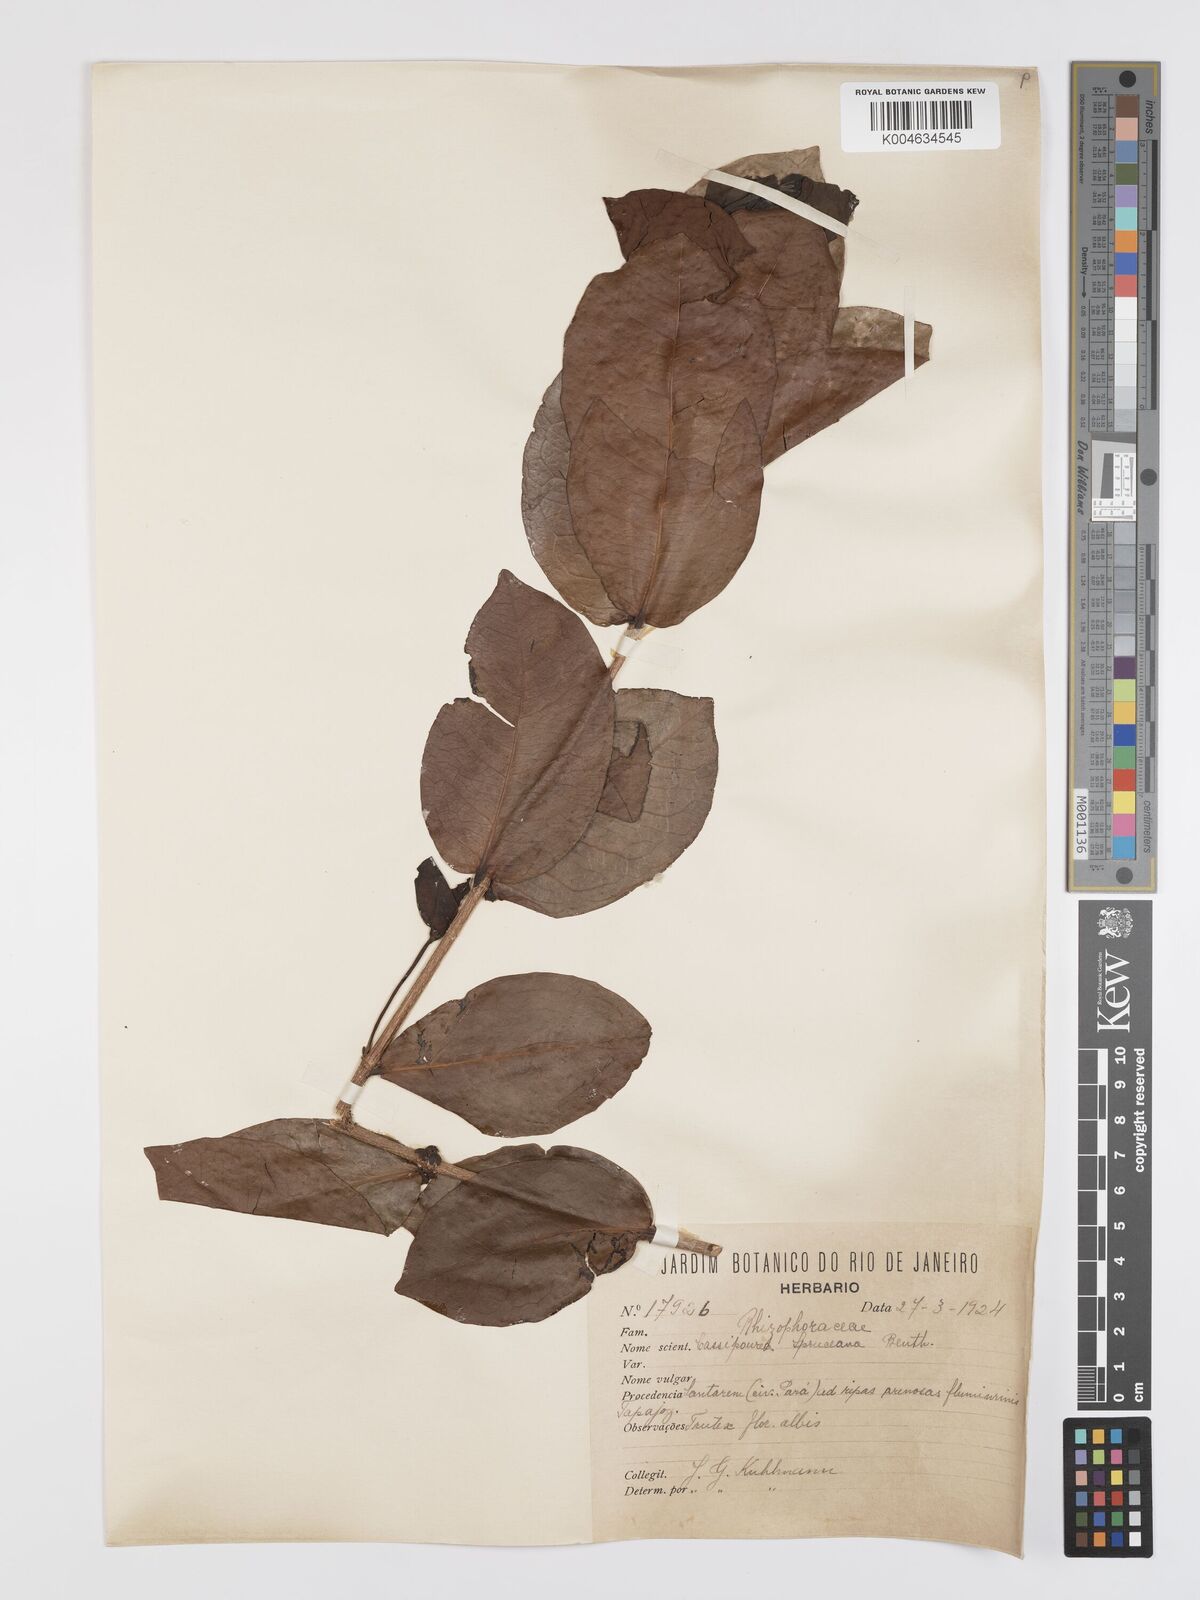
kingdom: Plantae
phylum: Tracheophyta
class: Magnoliopsida
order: Malpighiales
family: Rhizophoraceae
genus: Cassipourea
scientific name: Cassipourea spruceana
